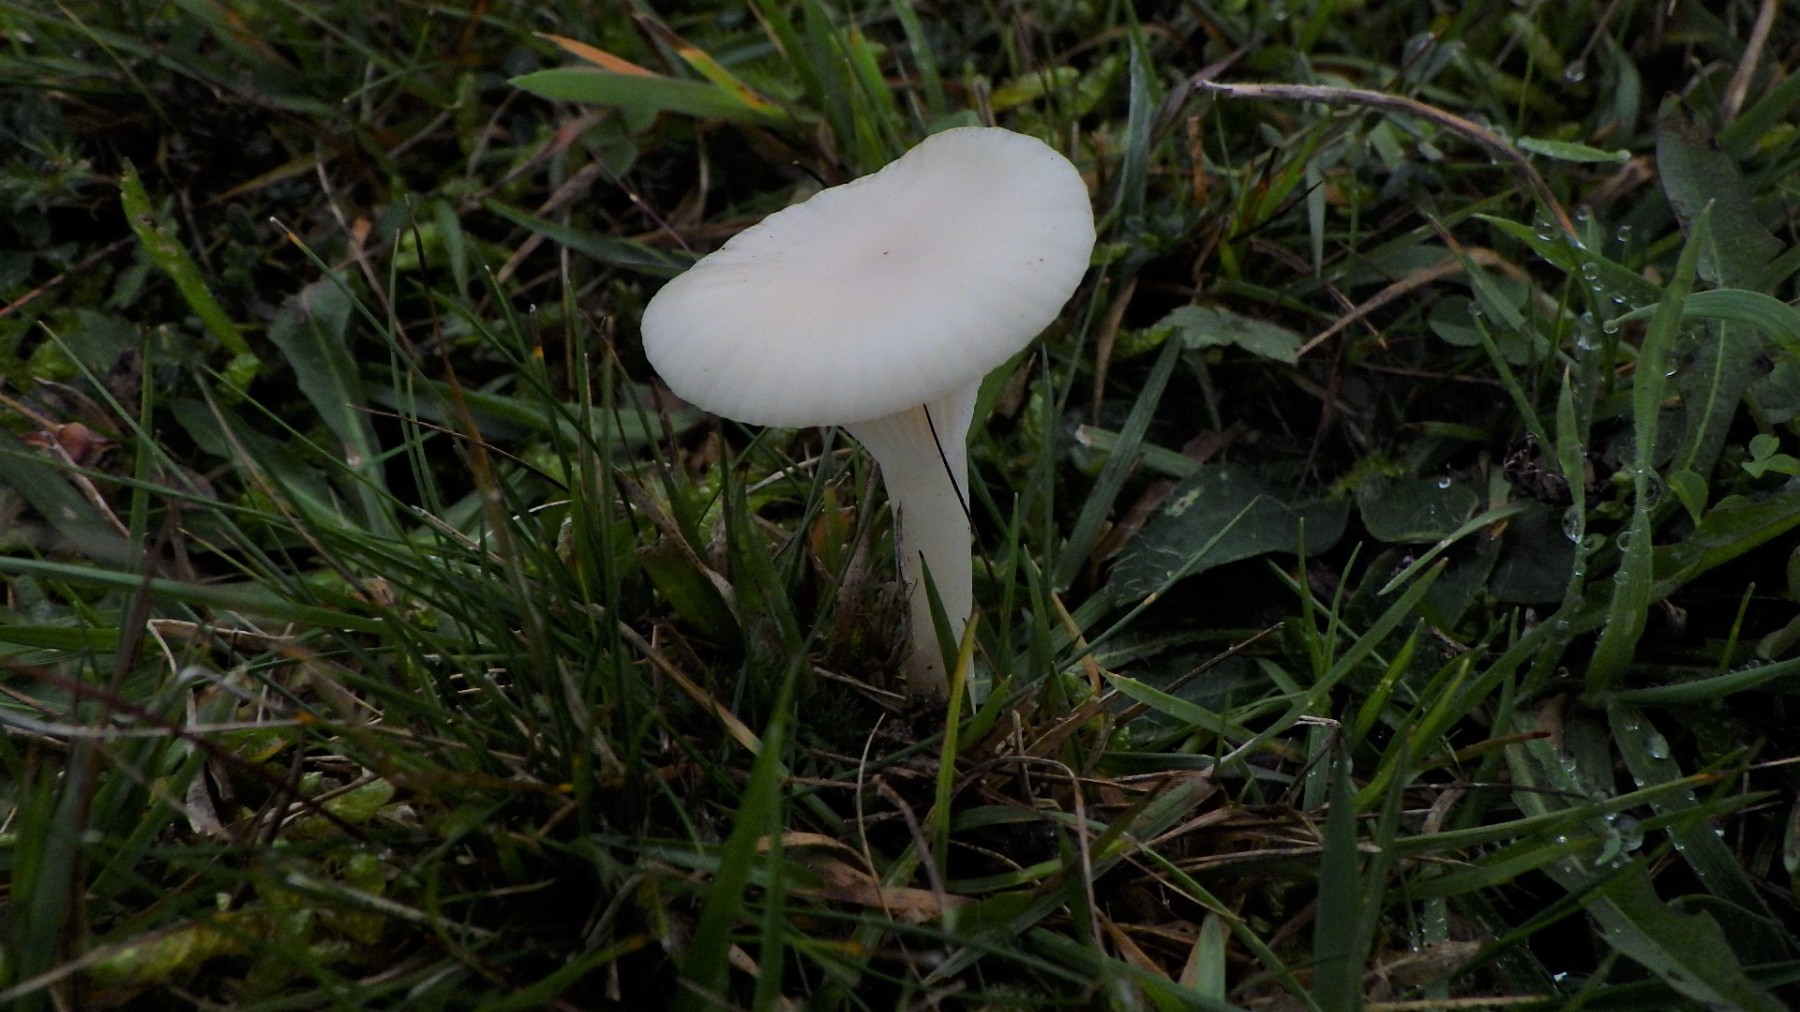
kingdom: Fungi
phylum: Basidiomycota
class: Agaricomycetes
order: Agaricales
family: Hygrophoraceae
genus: Cuphophyllus
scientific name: Cuphophyllus virgineus
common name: snehvid vokshat
